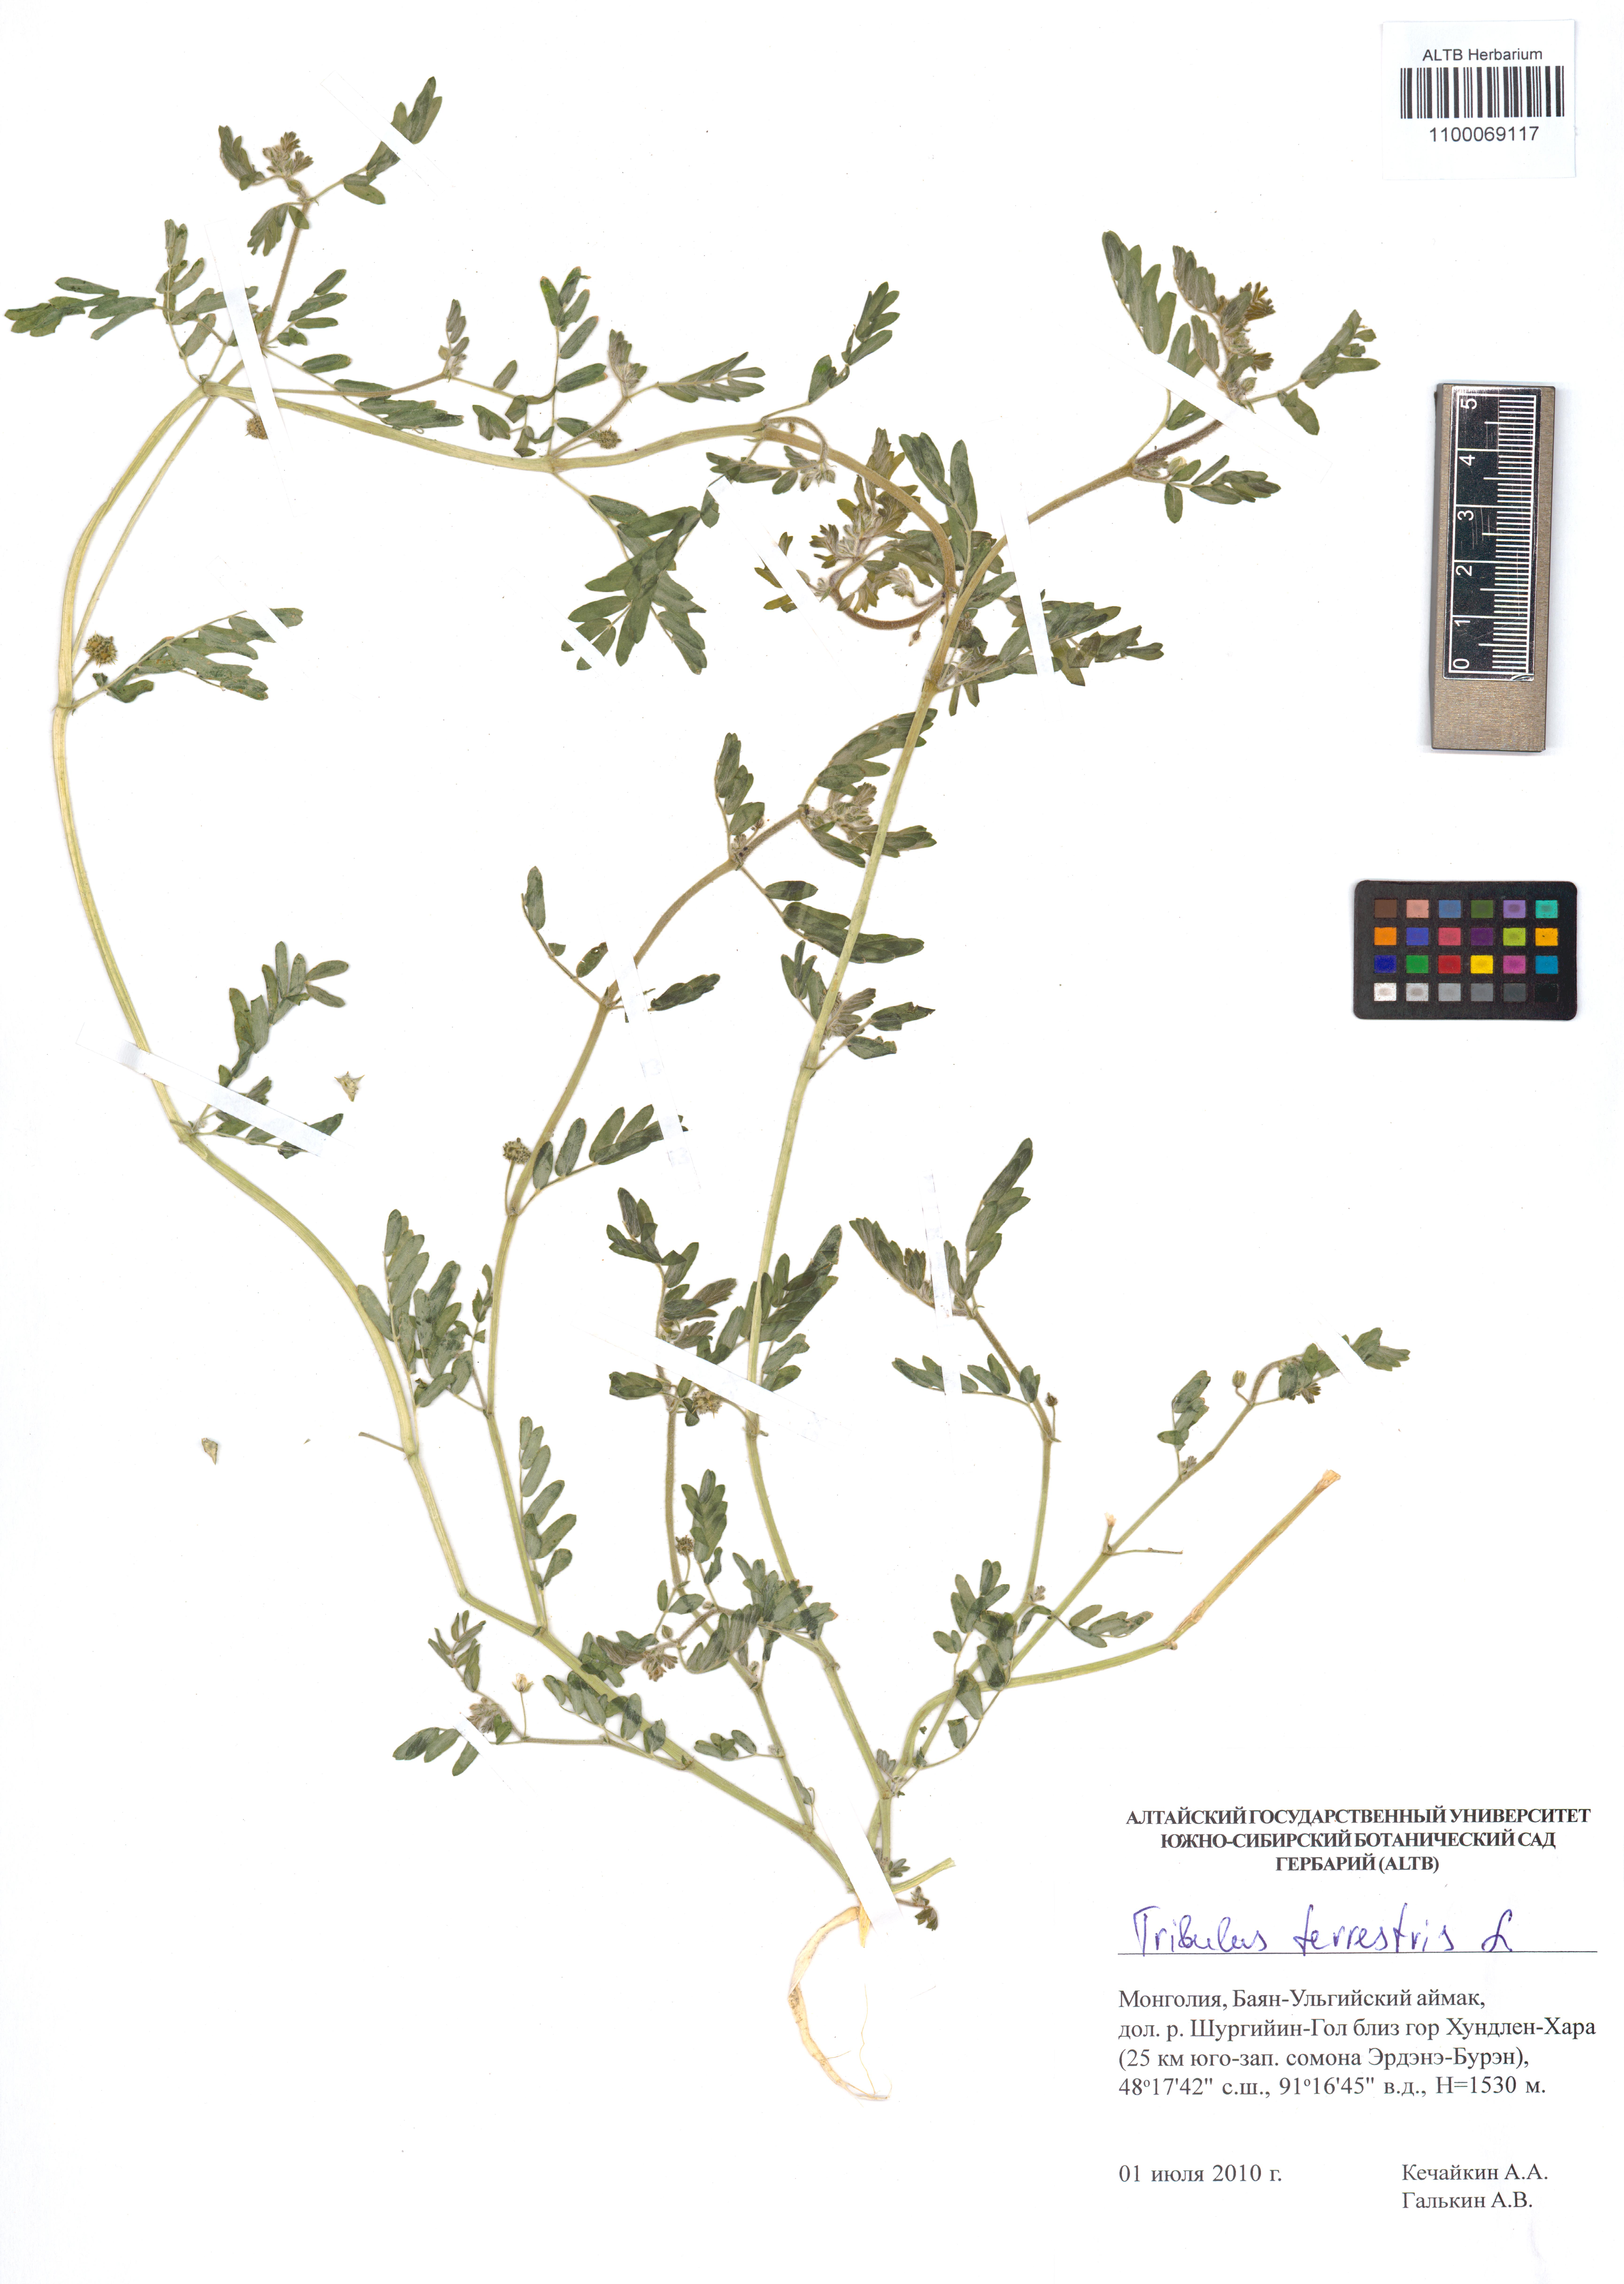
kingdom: Plantae
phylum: Tracheophyta
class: Magnoliopsida
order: Zygophyllales
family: Zygophyllaceae
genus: Tribulus
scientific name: Tribulus terrestris
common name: Puncturevine
